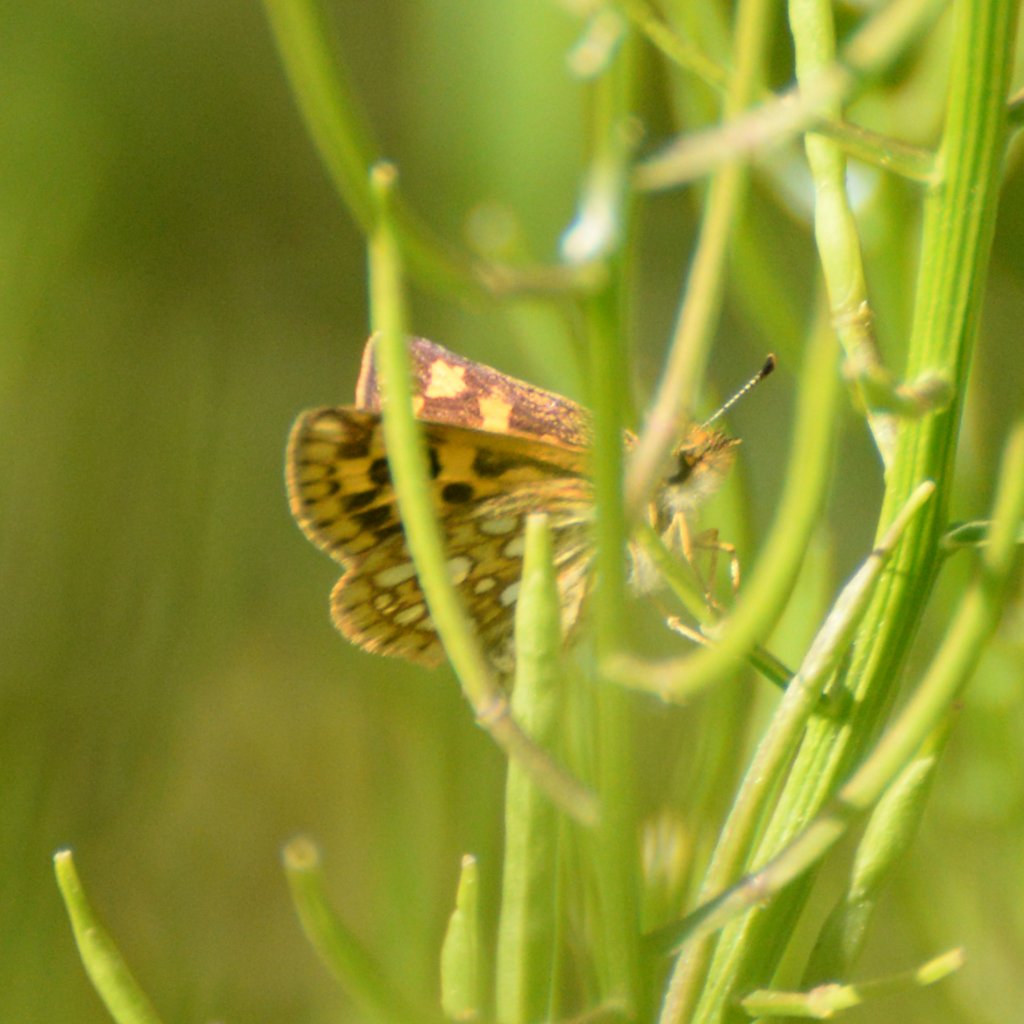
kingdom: Animalia
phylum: Arthropoda
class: Insecta
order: Lepidoptera
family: Hesperiidae
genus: Carterocephalus
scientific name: Carterocephalus palaemon
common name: Chequered Skipper
